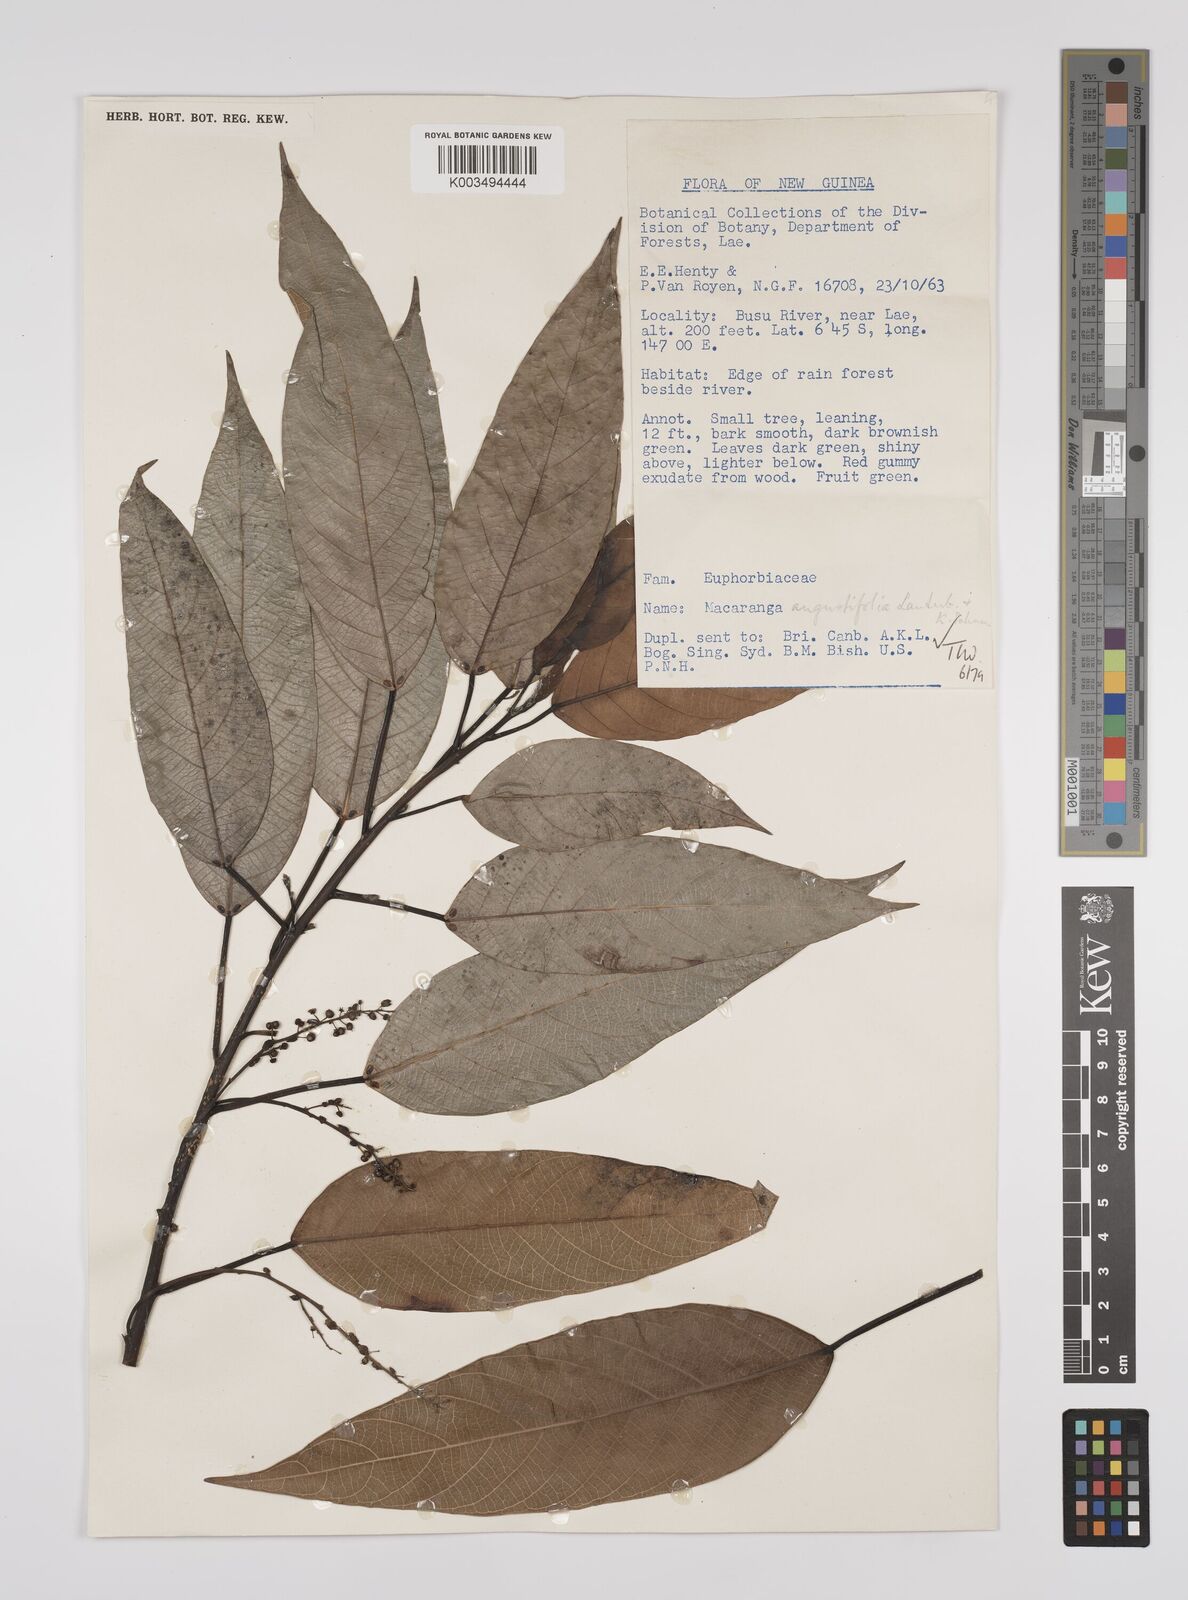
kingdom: Plantae
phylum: Tracheophyta
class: Magnoliopsida
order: Malpighiales
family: Euphorbiaceae
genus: Macaranga
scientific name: Macaranga angustifolia
